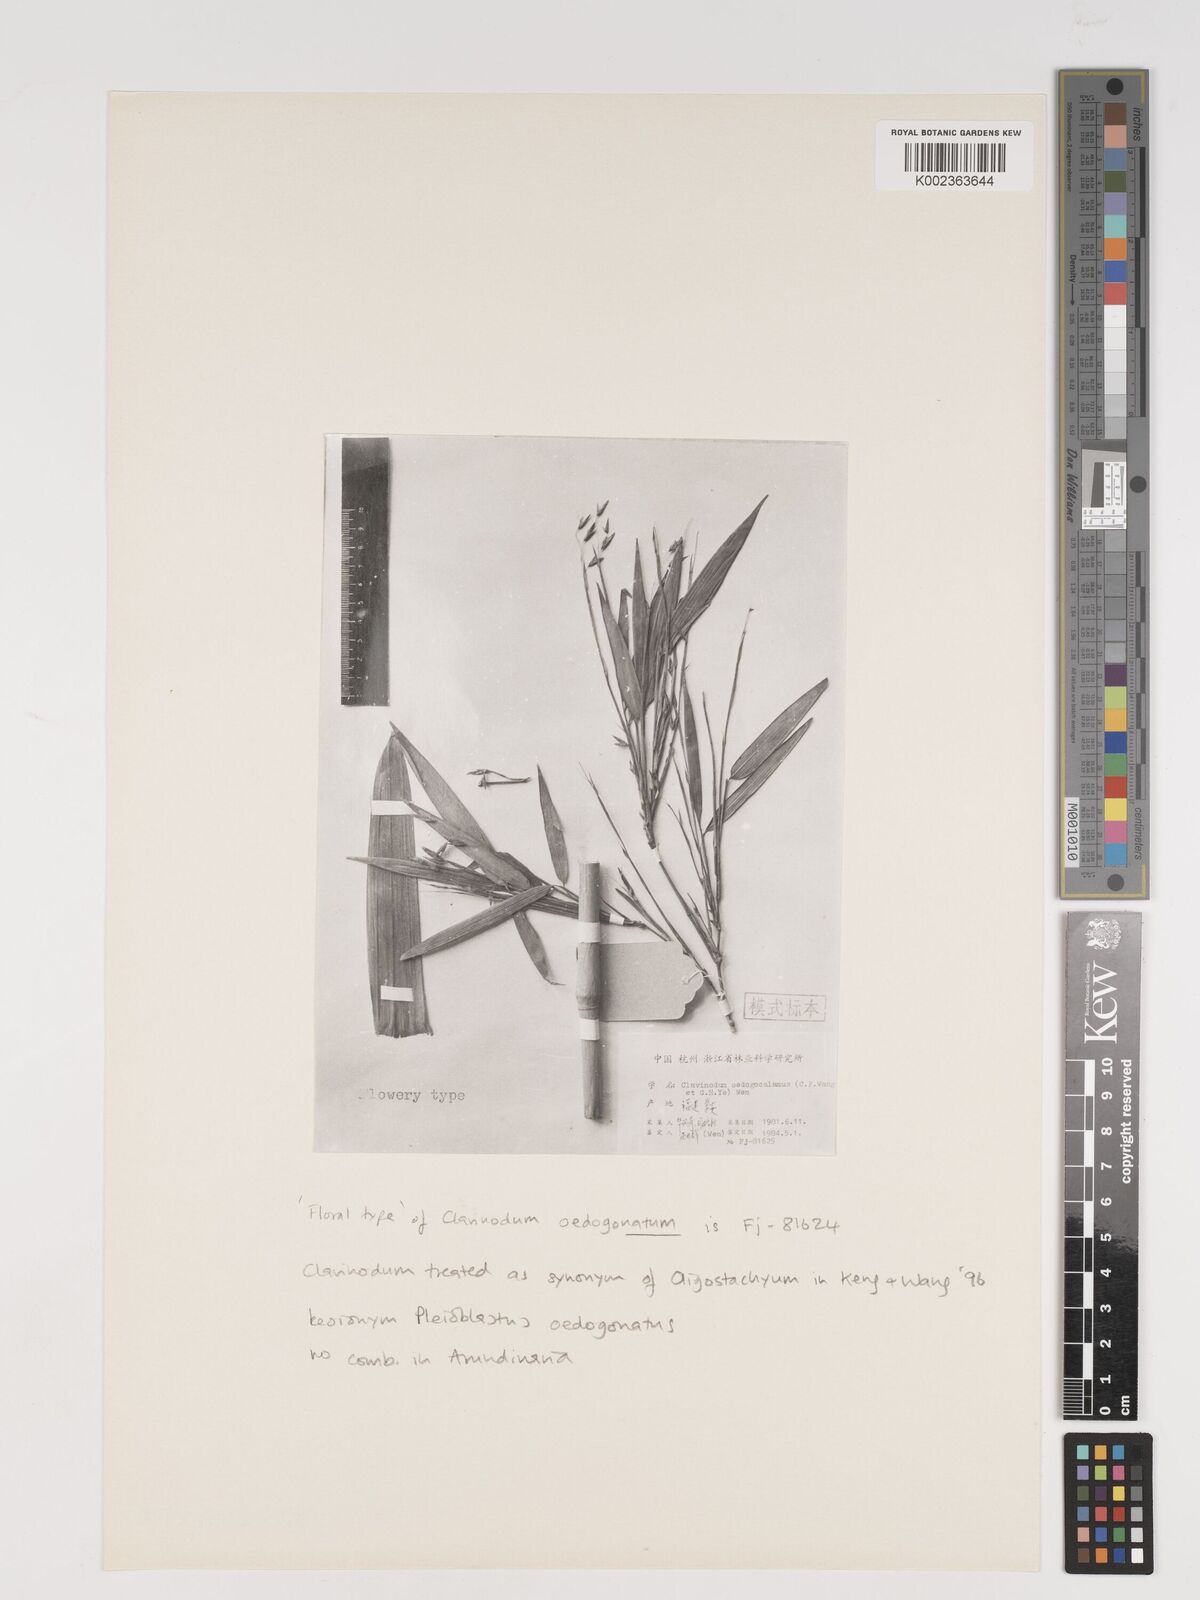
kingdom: Plantae
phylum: Tracheophyta
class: Liliopsida
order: Poales
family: Poaceae
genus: Oligostachyum
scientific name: Oligostachyum oedogonatum
